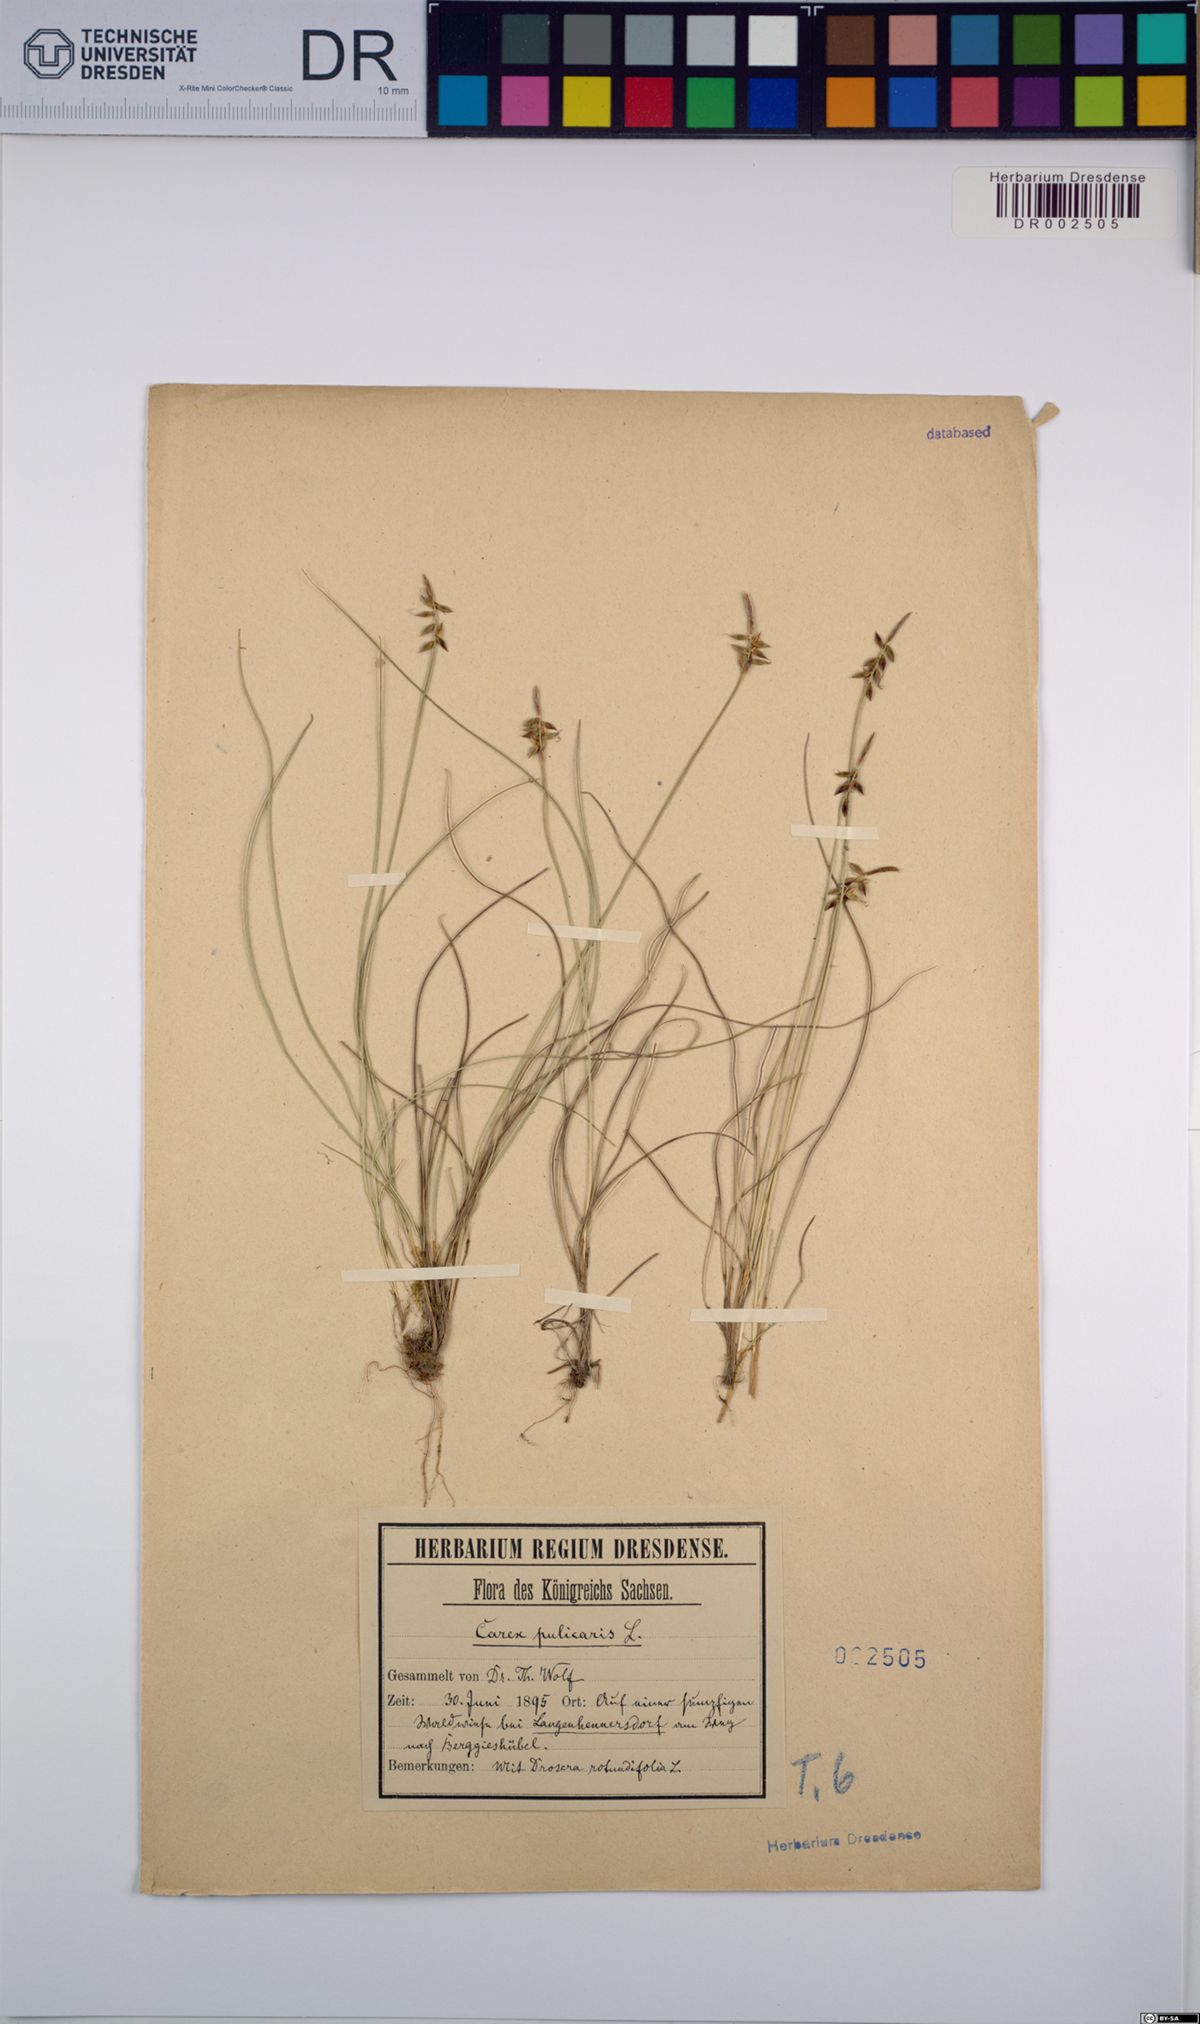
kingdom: Plantae
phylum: Tracheophyta
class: Liliopsida
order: Poales
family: Cyperaceae
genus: Carex
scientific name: Carex pulicaris
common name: Flea sedge
